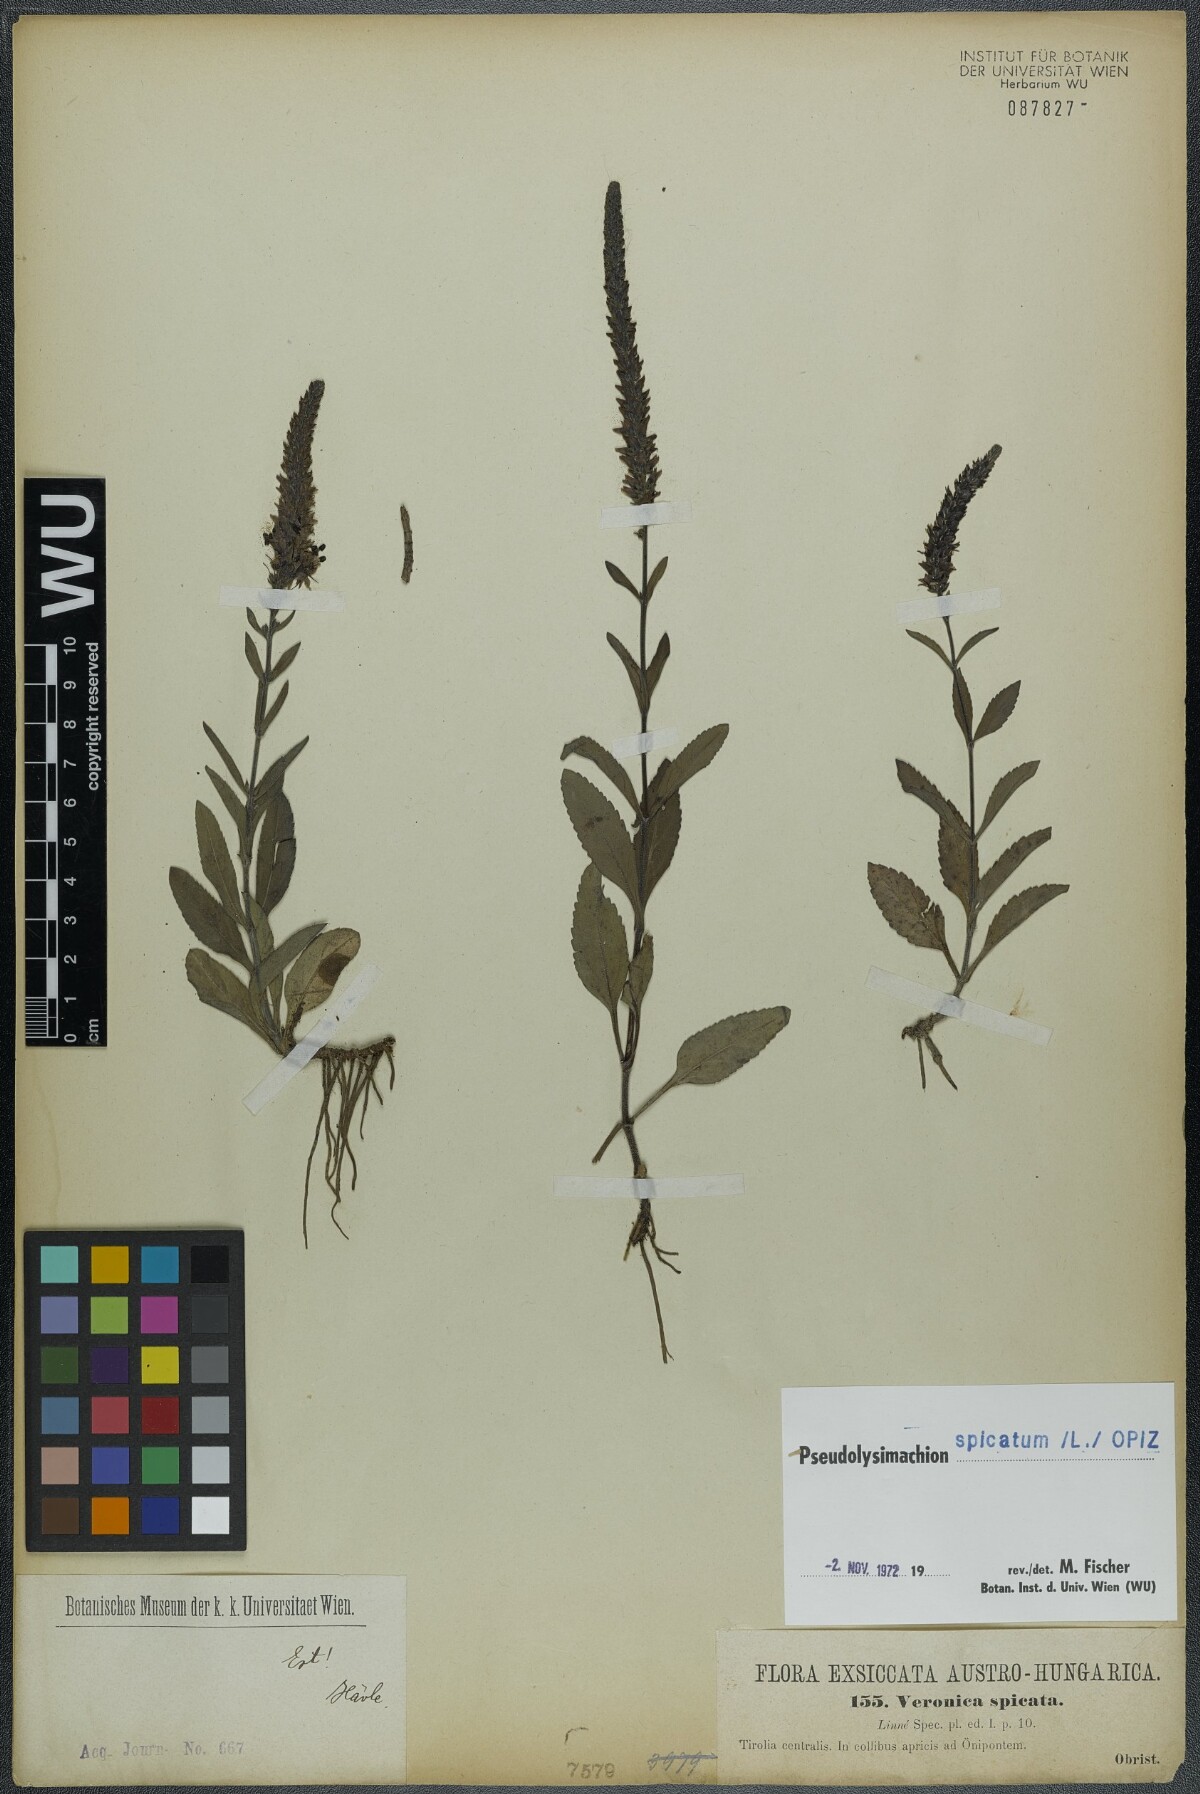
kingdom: Plantae
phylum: Tracheophyta
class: Magnoliopsida
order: Lamiales
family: Plantaginaceae
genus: Veronica
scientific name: Veronica spicata
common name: Spiked speedwell
